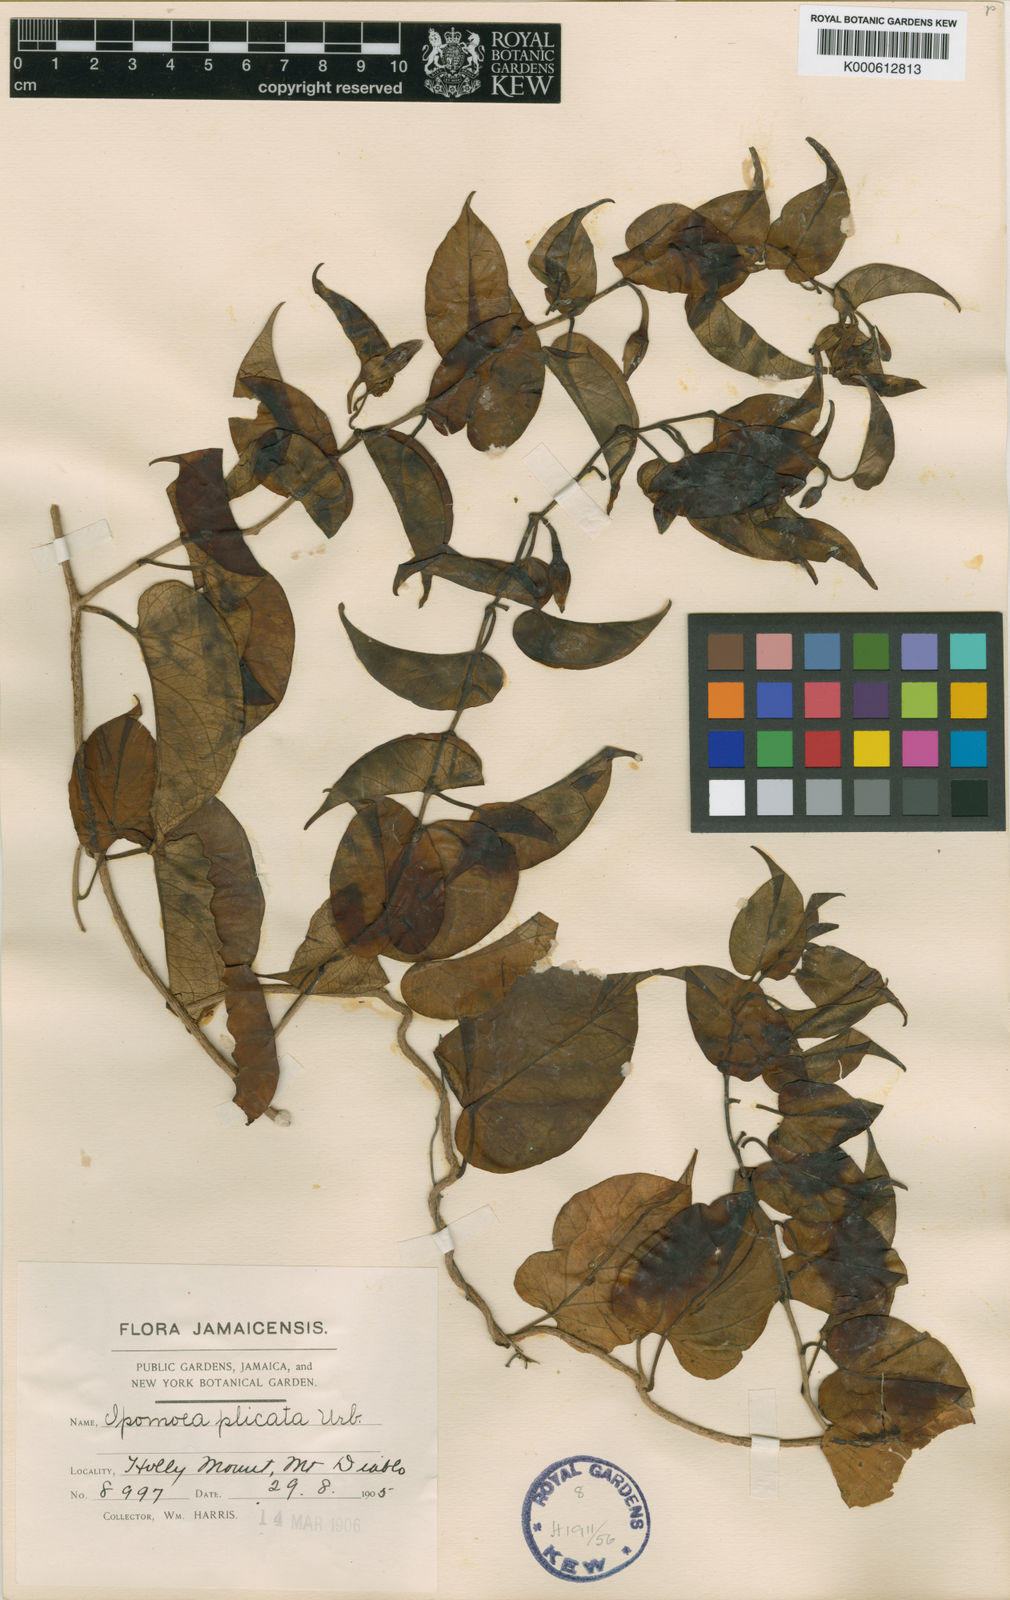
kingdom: Plantae
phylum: Tracheophyta
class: Magnoliopsida
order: Solanales
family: Convolvulaceae
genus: Ipomoea
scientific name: Ipomoea lindenii
